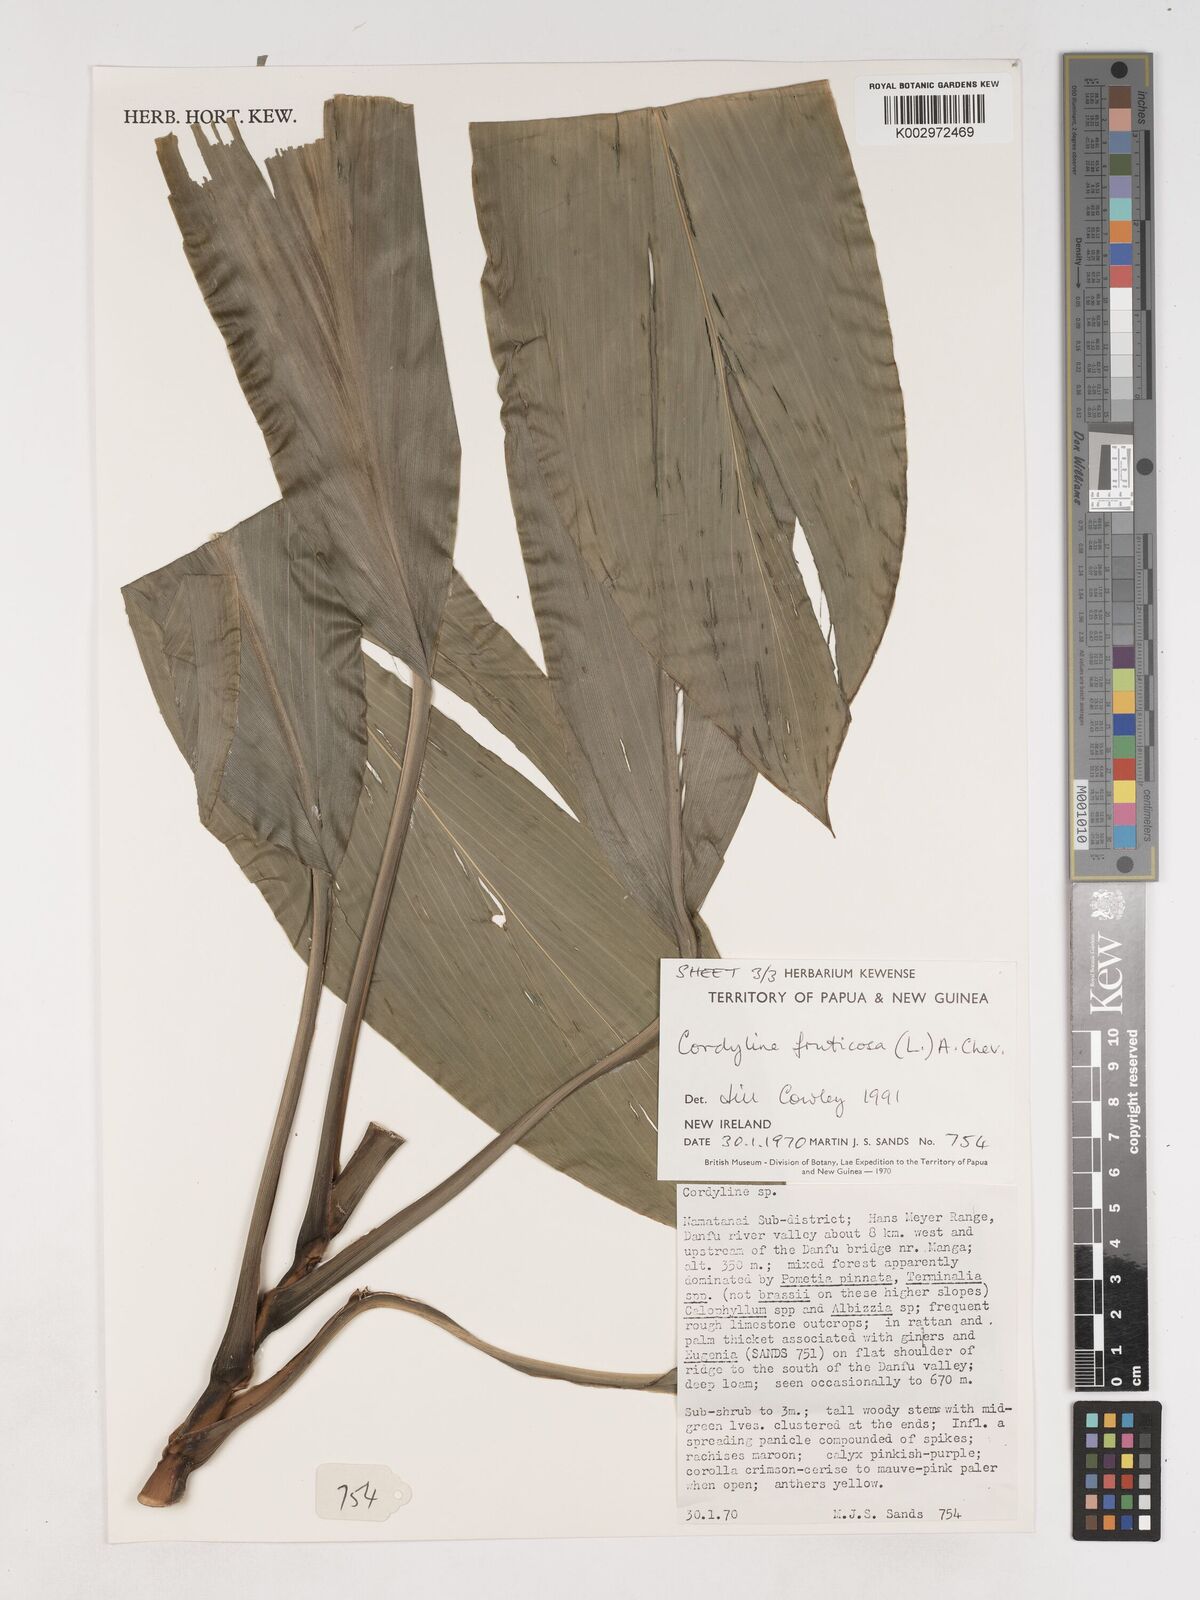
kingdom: Plantae
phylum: Tracheophyta
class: Liliopsida
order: Asparagales
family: Asparagaceae
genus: Cordyline
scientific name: Cordyline fruticosa
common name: Good-luck-plant
